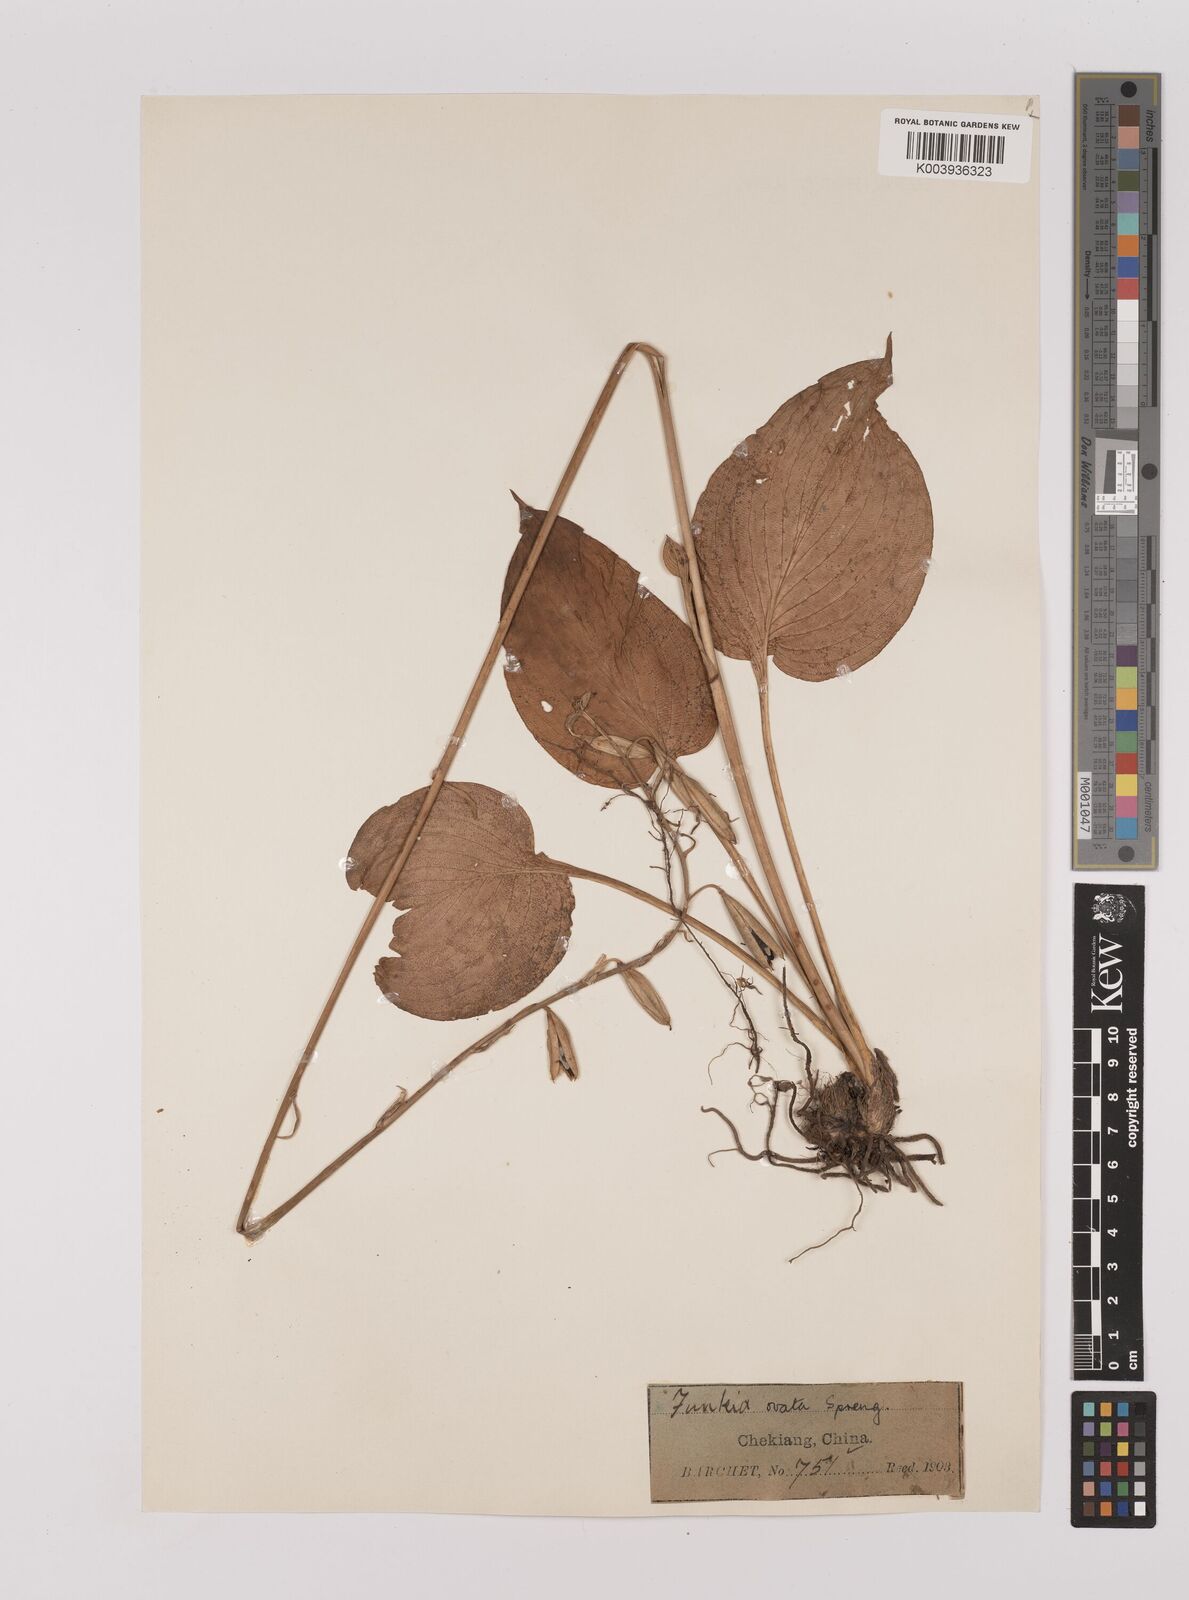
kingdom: Plantae
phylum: Tracheophyta
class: Liliopsida
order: Asparagales
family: Asparagaceae
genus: Hosta
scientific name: Hosta ventricosa
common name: Blue plantain-lily
